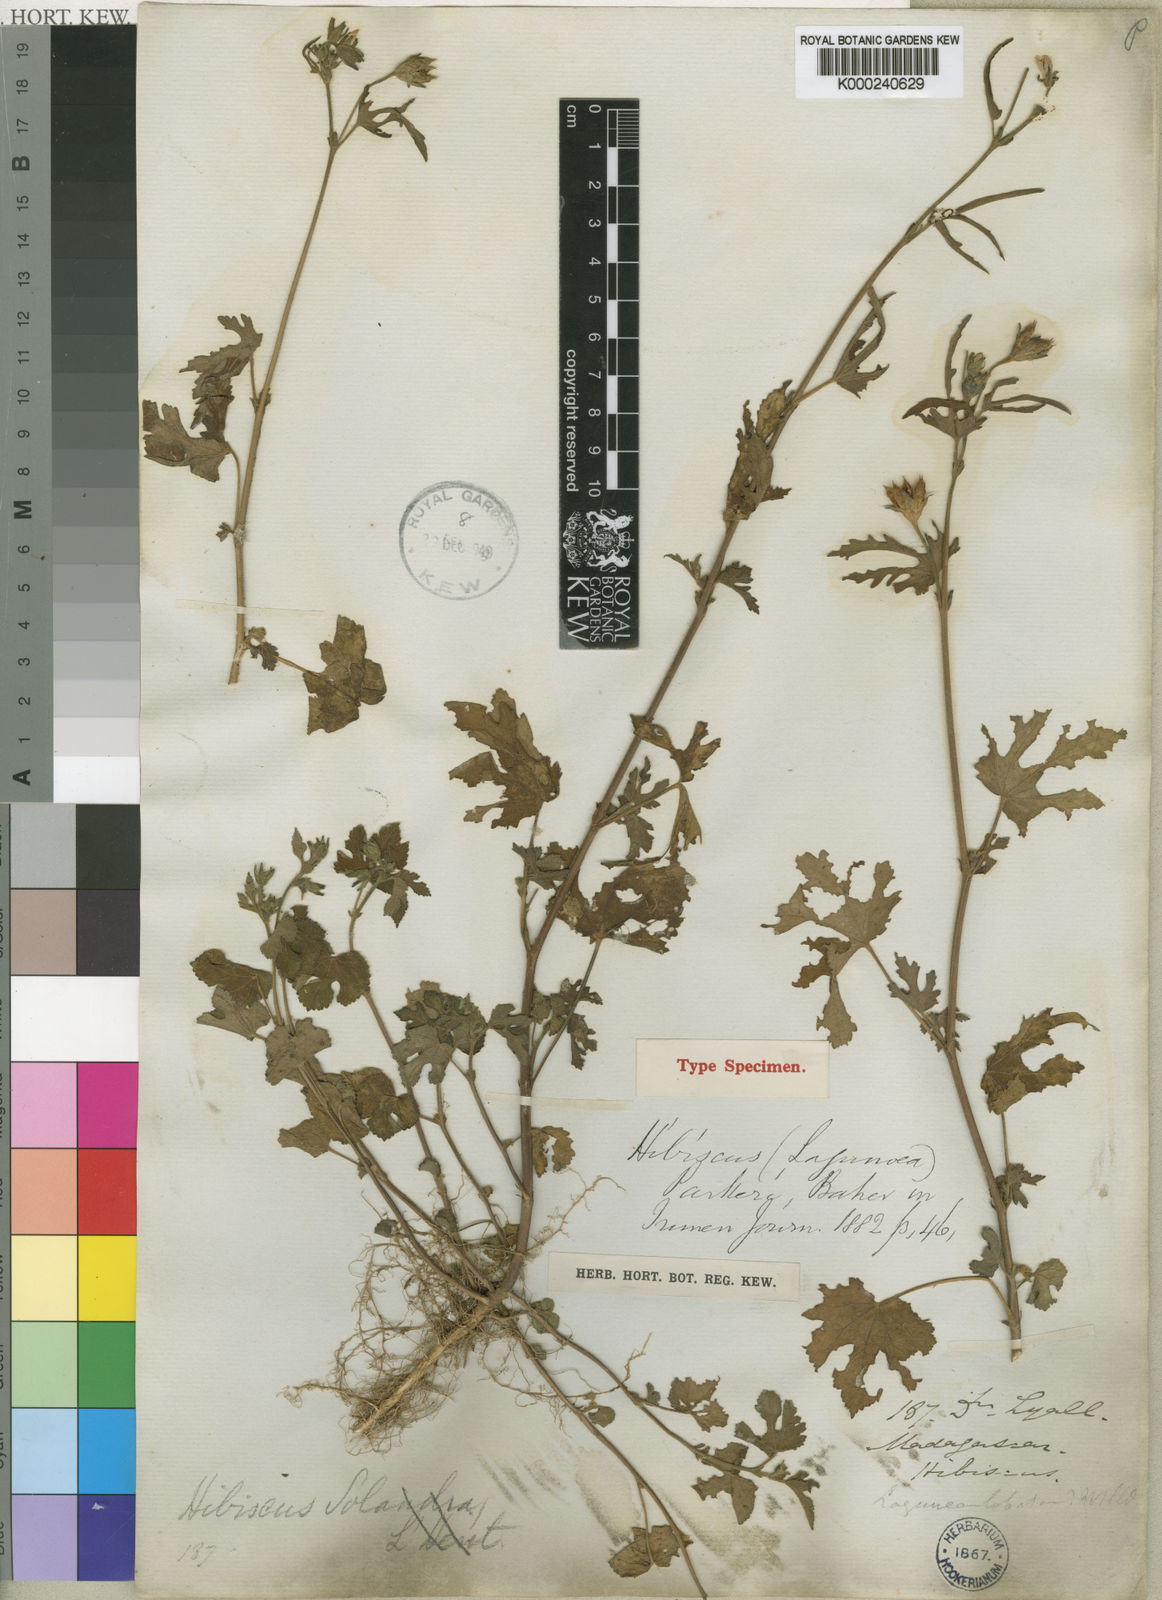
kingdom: Plantae
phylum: Tracheophyta
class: Magnoliopsida
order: Malvales
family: Malvaceae
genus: Hibiscus
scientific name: Hibiscus
